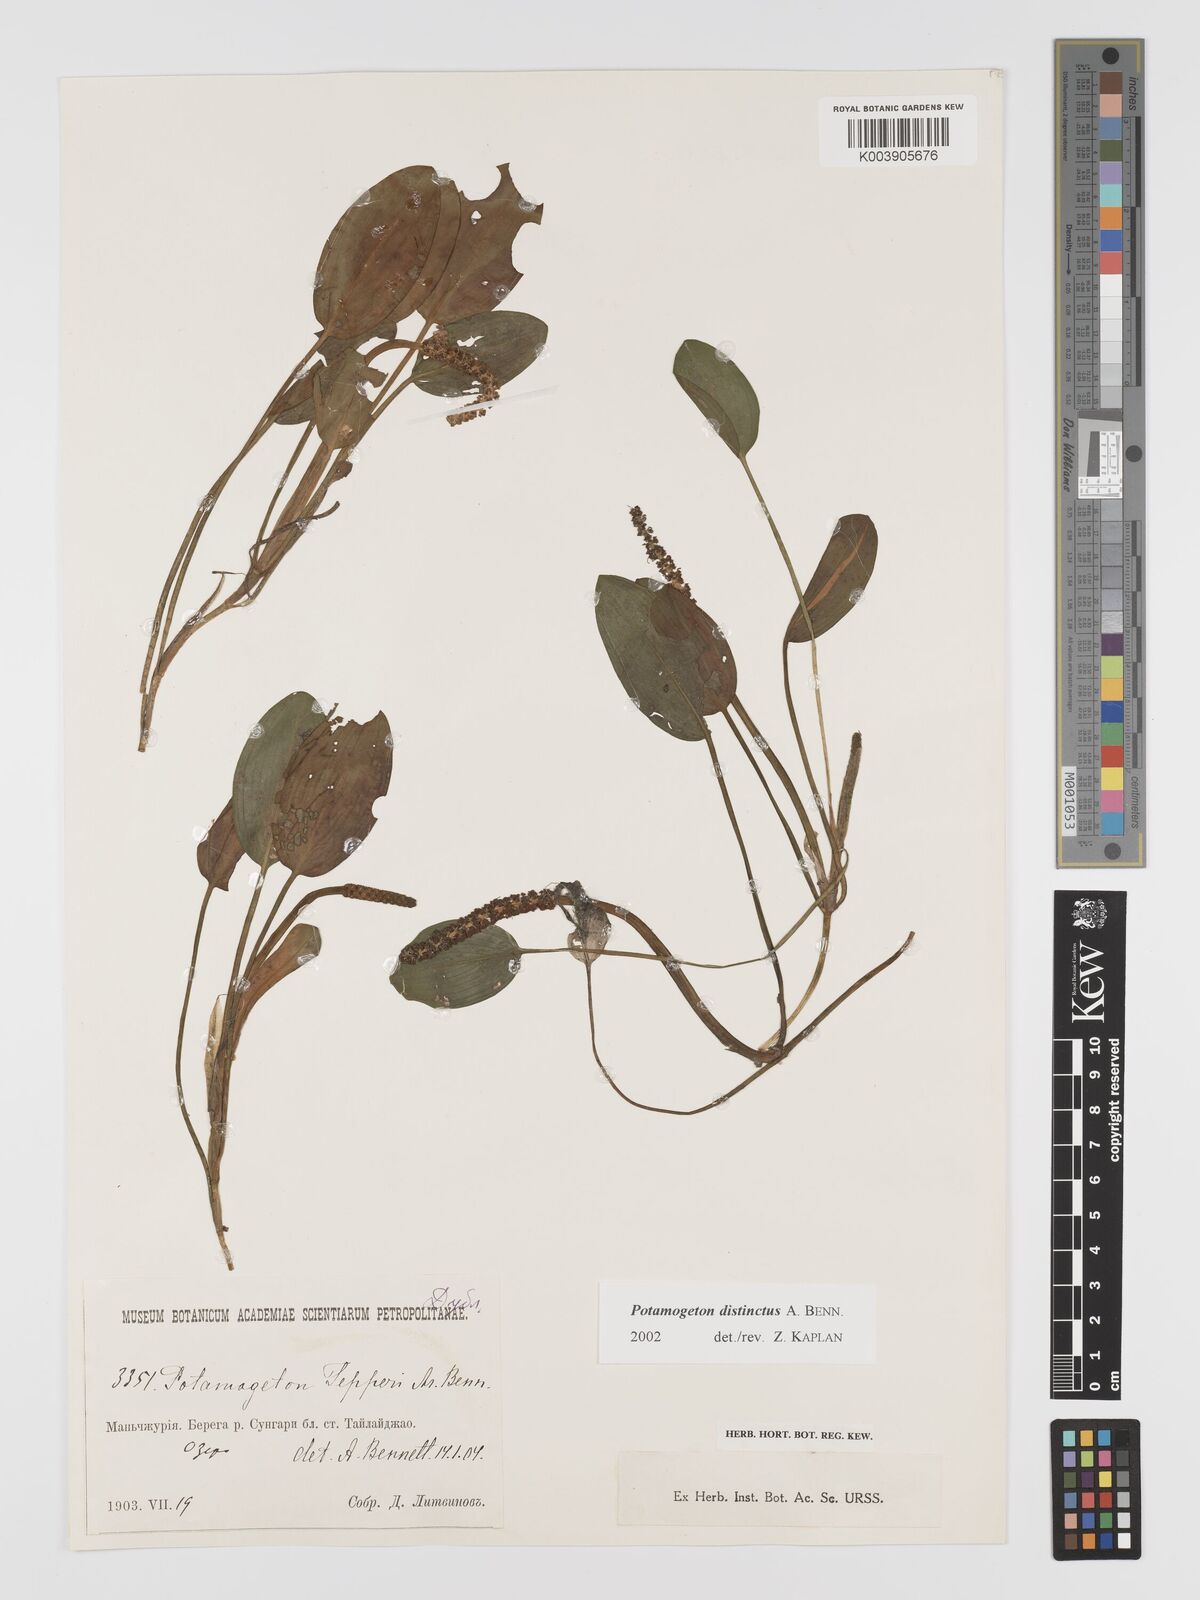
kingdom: Plantae
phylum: Tracheophyta
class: Liliopsida
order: Alismatales
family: Potamogetonaceae
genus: Potamogeton
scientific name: Potamogeton distinctus
